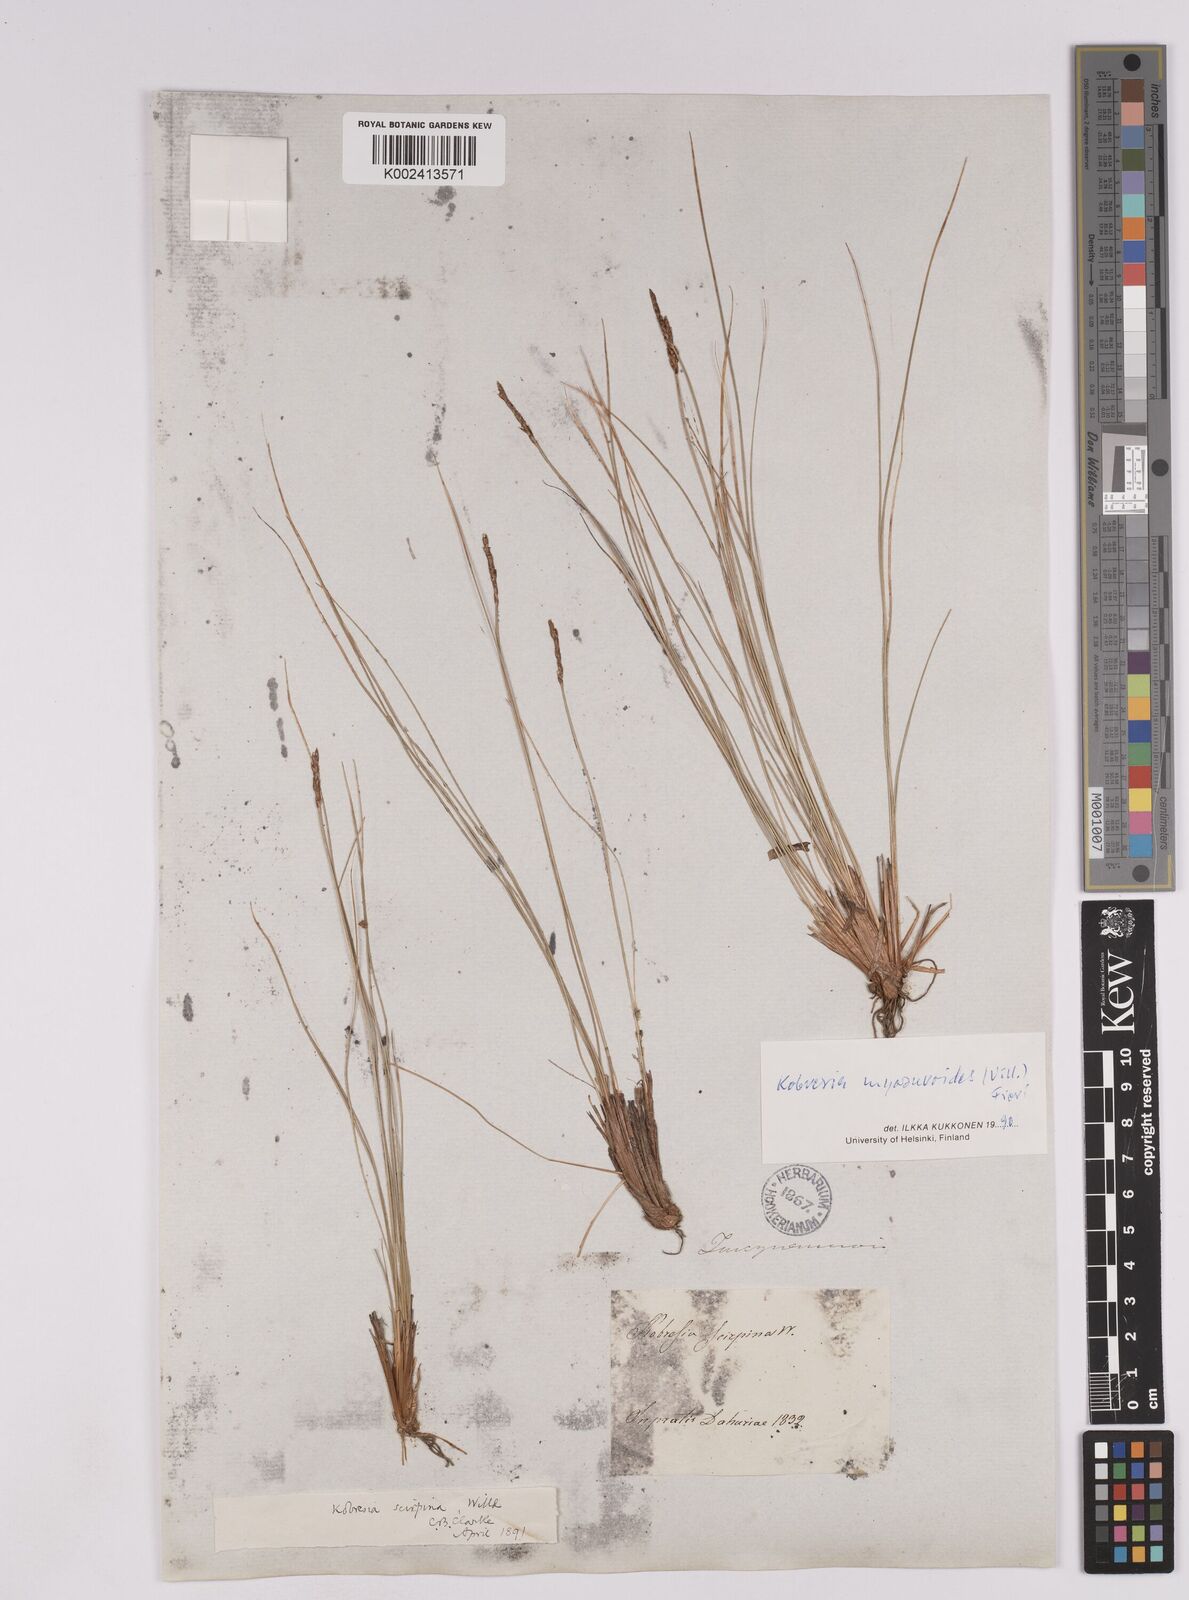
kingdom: Plantae
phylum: Tracheophyta
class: Liliopsida
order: Poales
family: Cyperaceae
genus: Carex
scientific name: Carex myosuroides
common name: Bellard's bog sedge
